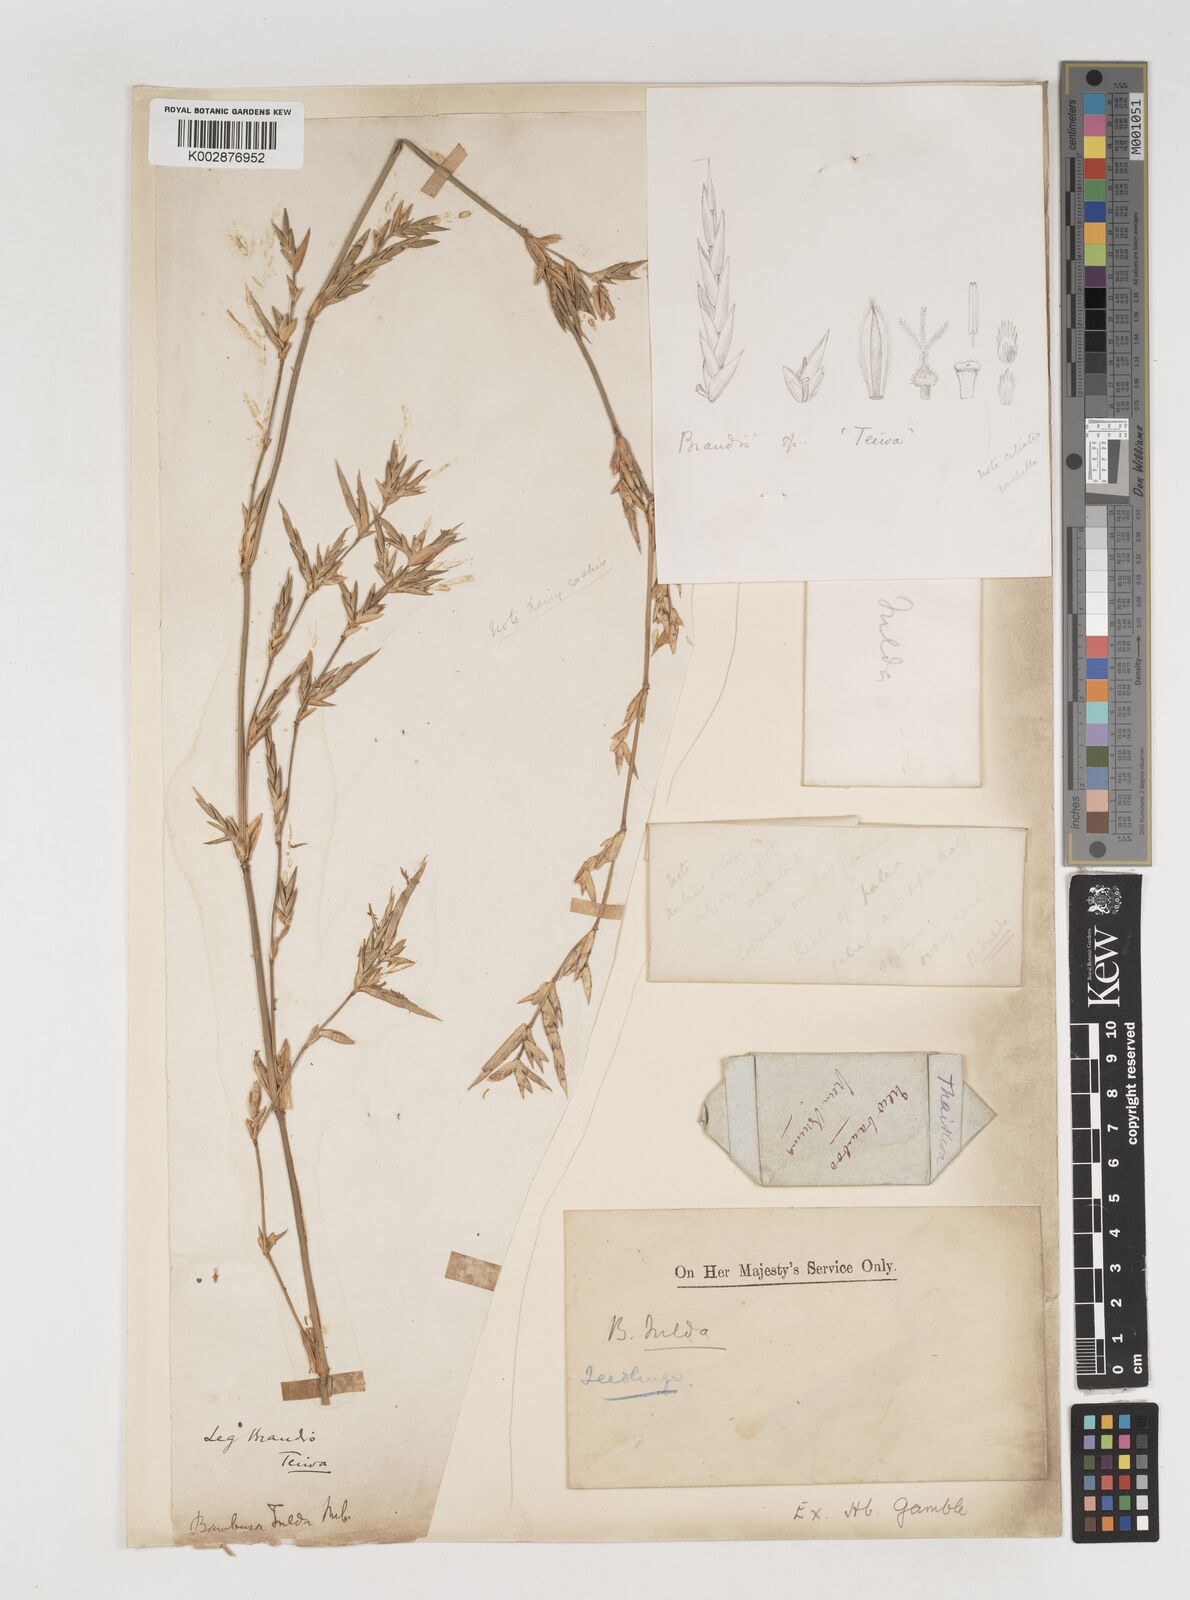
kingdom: Plantae
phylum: Tracheophyta
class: Liliopsida
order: Poales
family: Poaceae
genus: Bambusa
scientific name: Bambusa tulda
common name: Bengal bamboo
